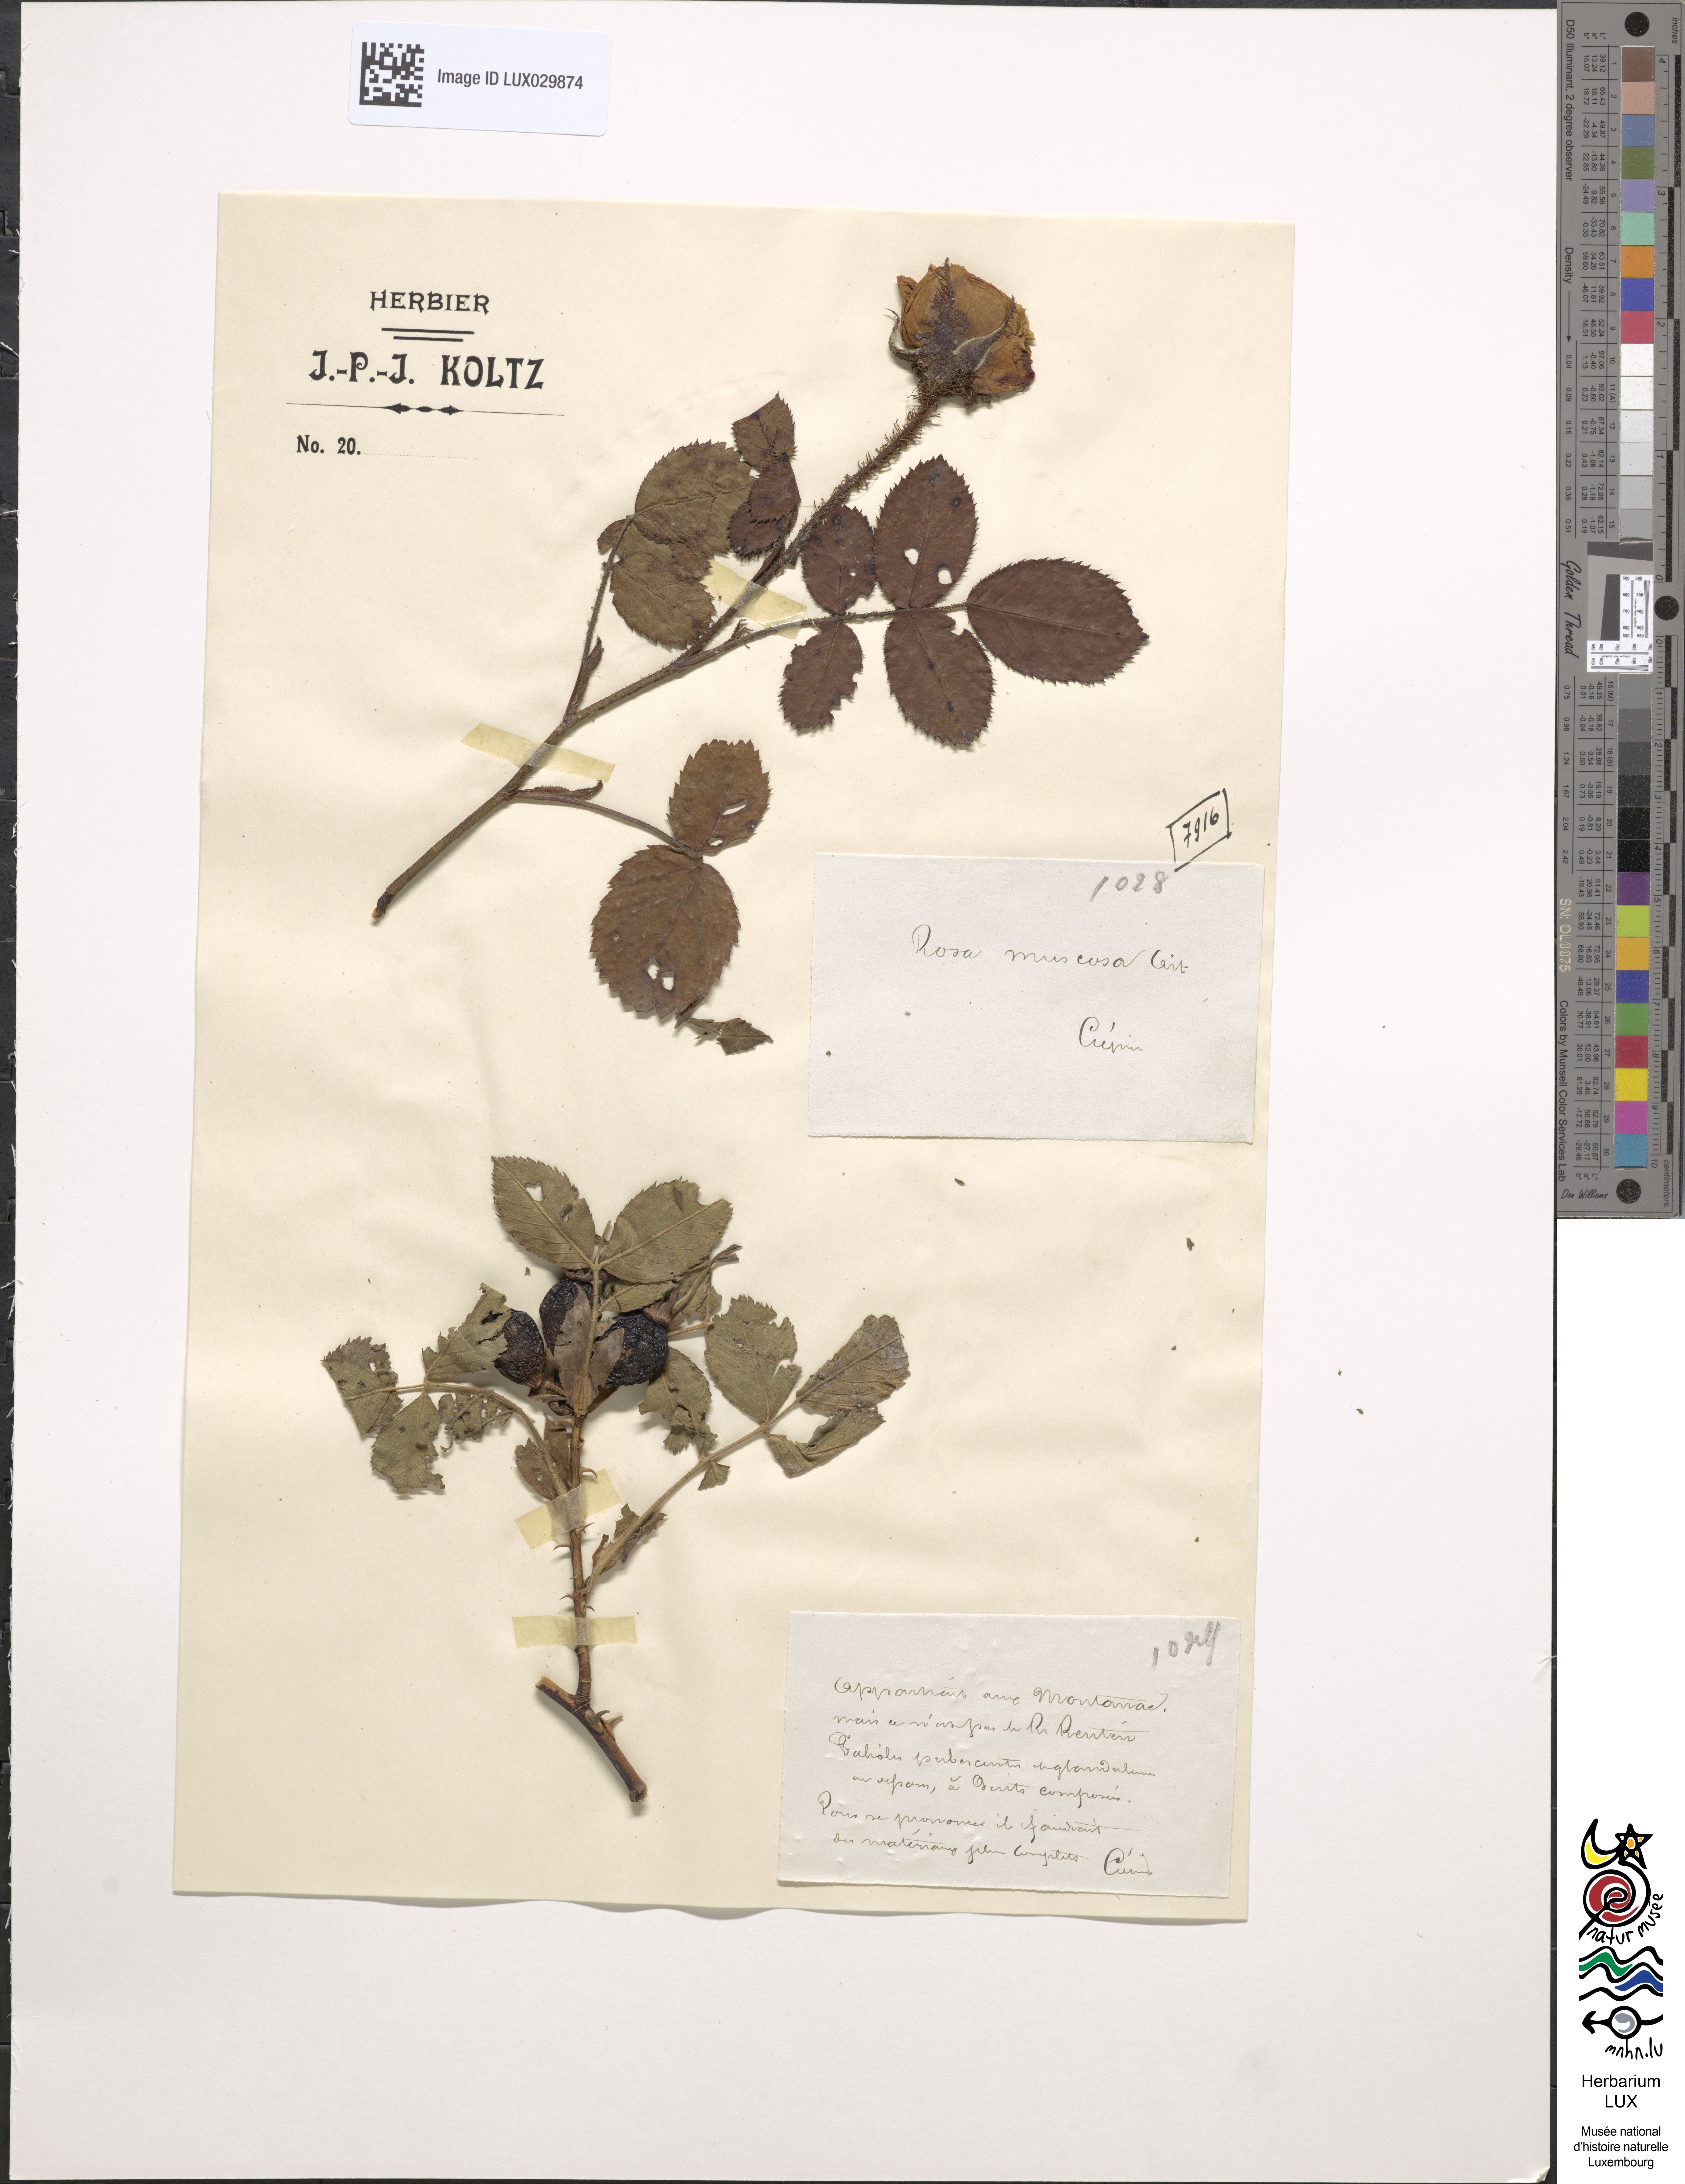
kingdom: Plantae
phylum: Tracheophyta
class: Magnoliopsida
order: Rosales
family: Rosaceae
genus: Rosa
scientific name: Rosa centifolia
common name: Cabbage rose
